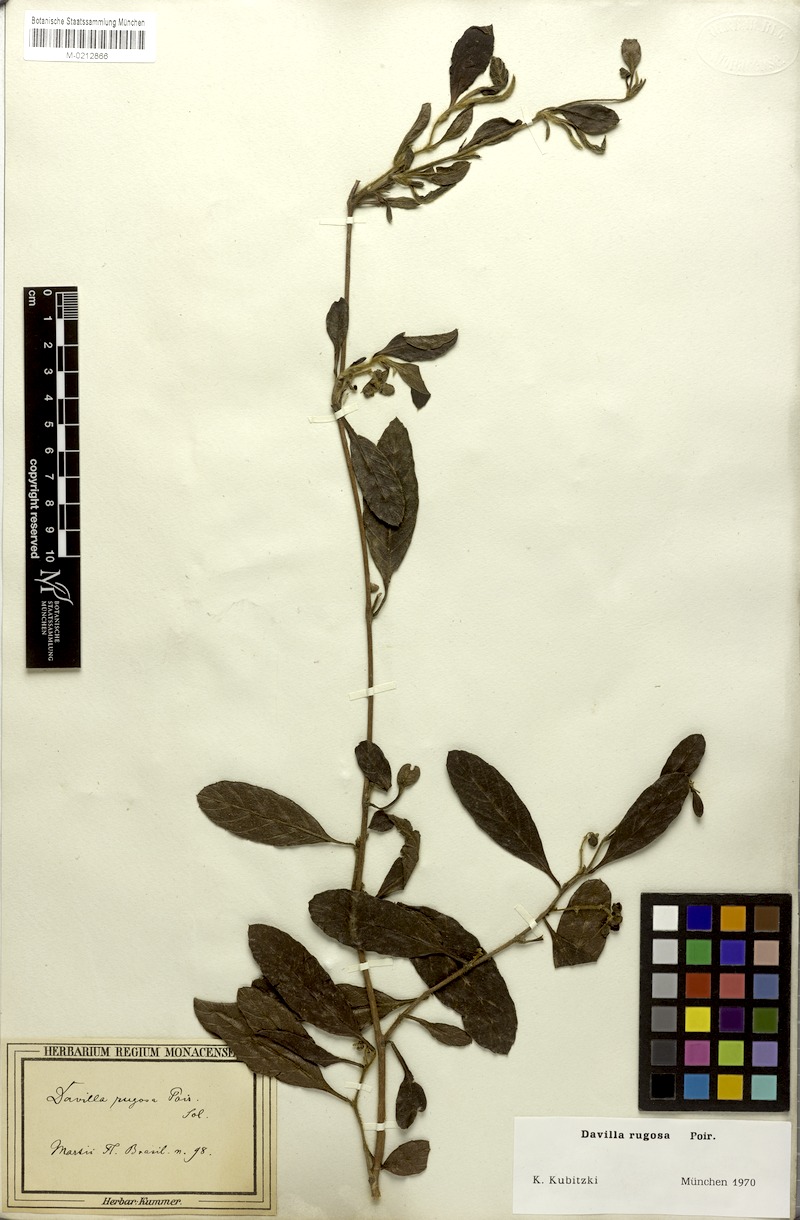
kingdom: Plantae
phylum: Tracheophyta
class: Magnoliopsida
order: Dilleniales
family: Dilleniaceae
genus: Davilla
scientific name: Davilla rugosa
